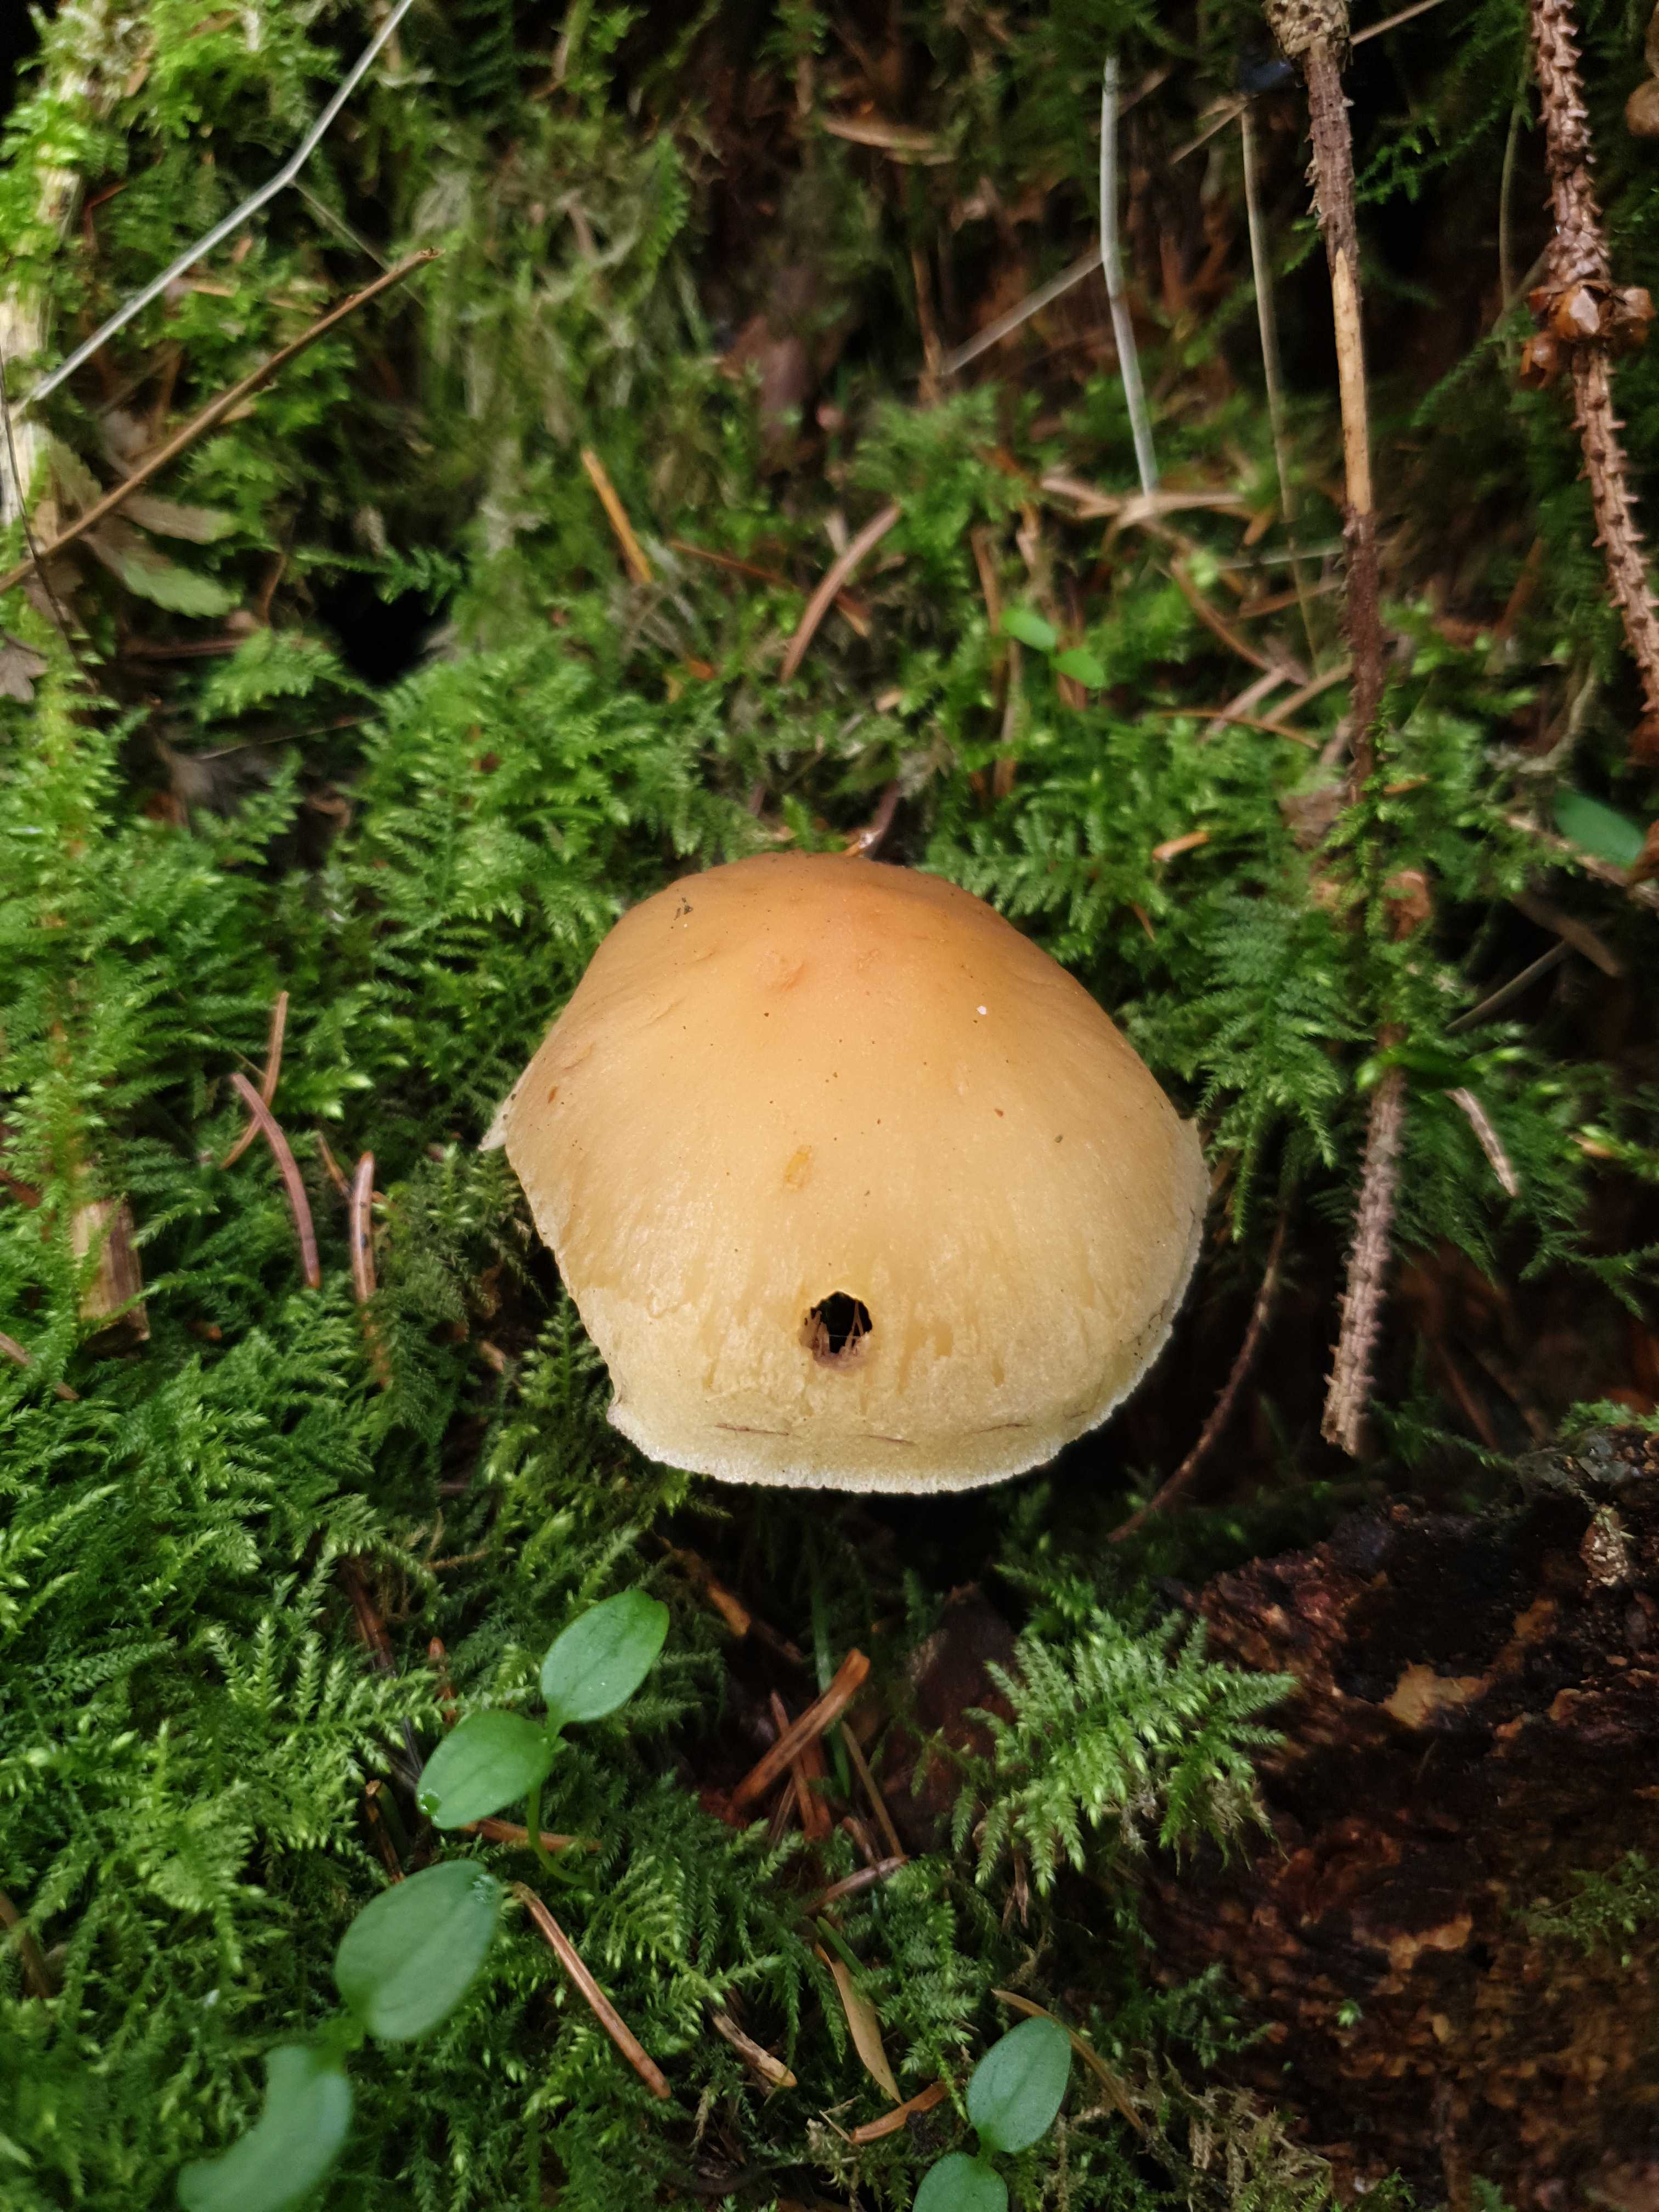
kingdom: Fungi
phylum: Basidiomycota
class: Agaricomycetes
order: Agaricales
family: Strophariaceae
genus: Hypholoma
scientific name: Hypholoma capnoides
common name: gran-svovlhat
